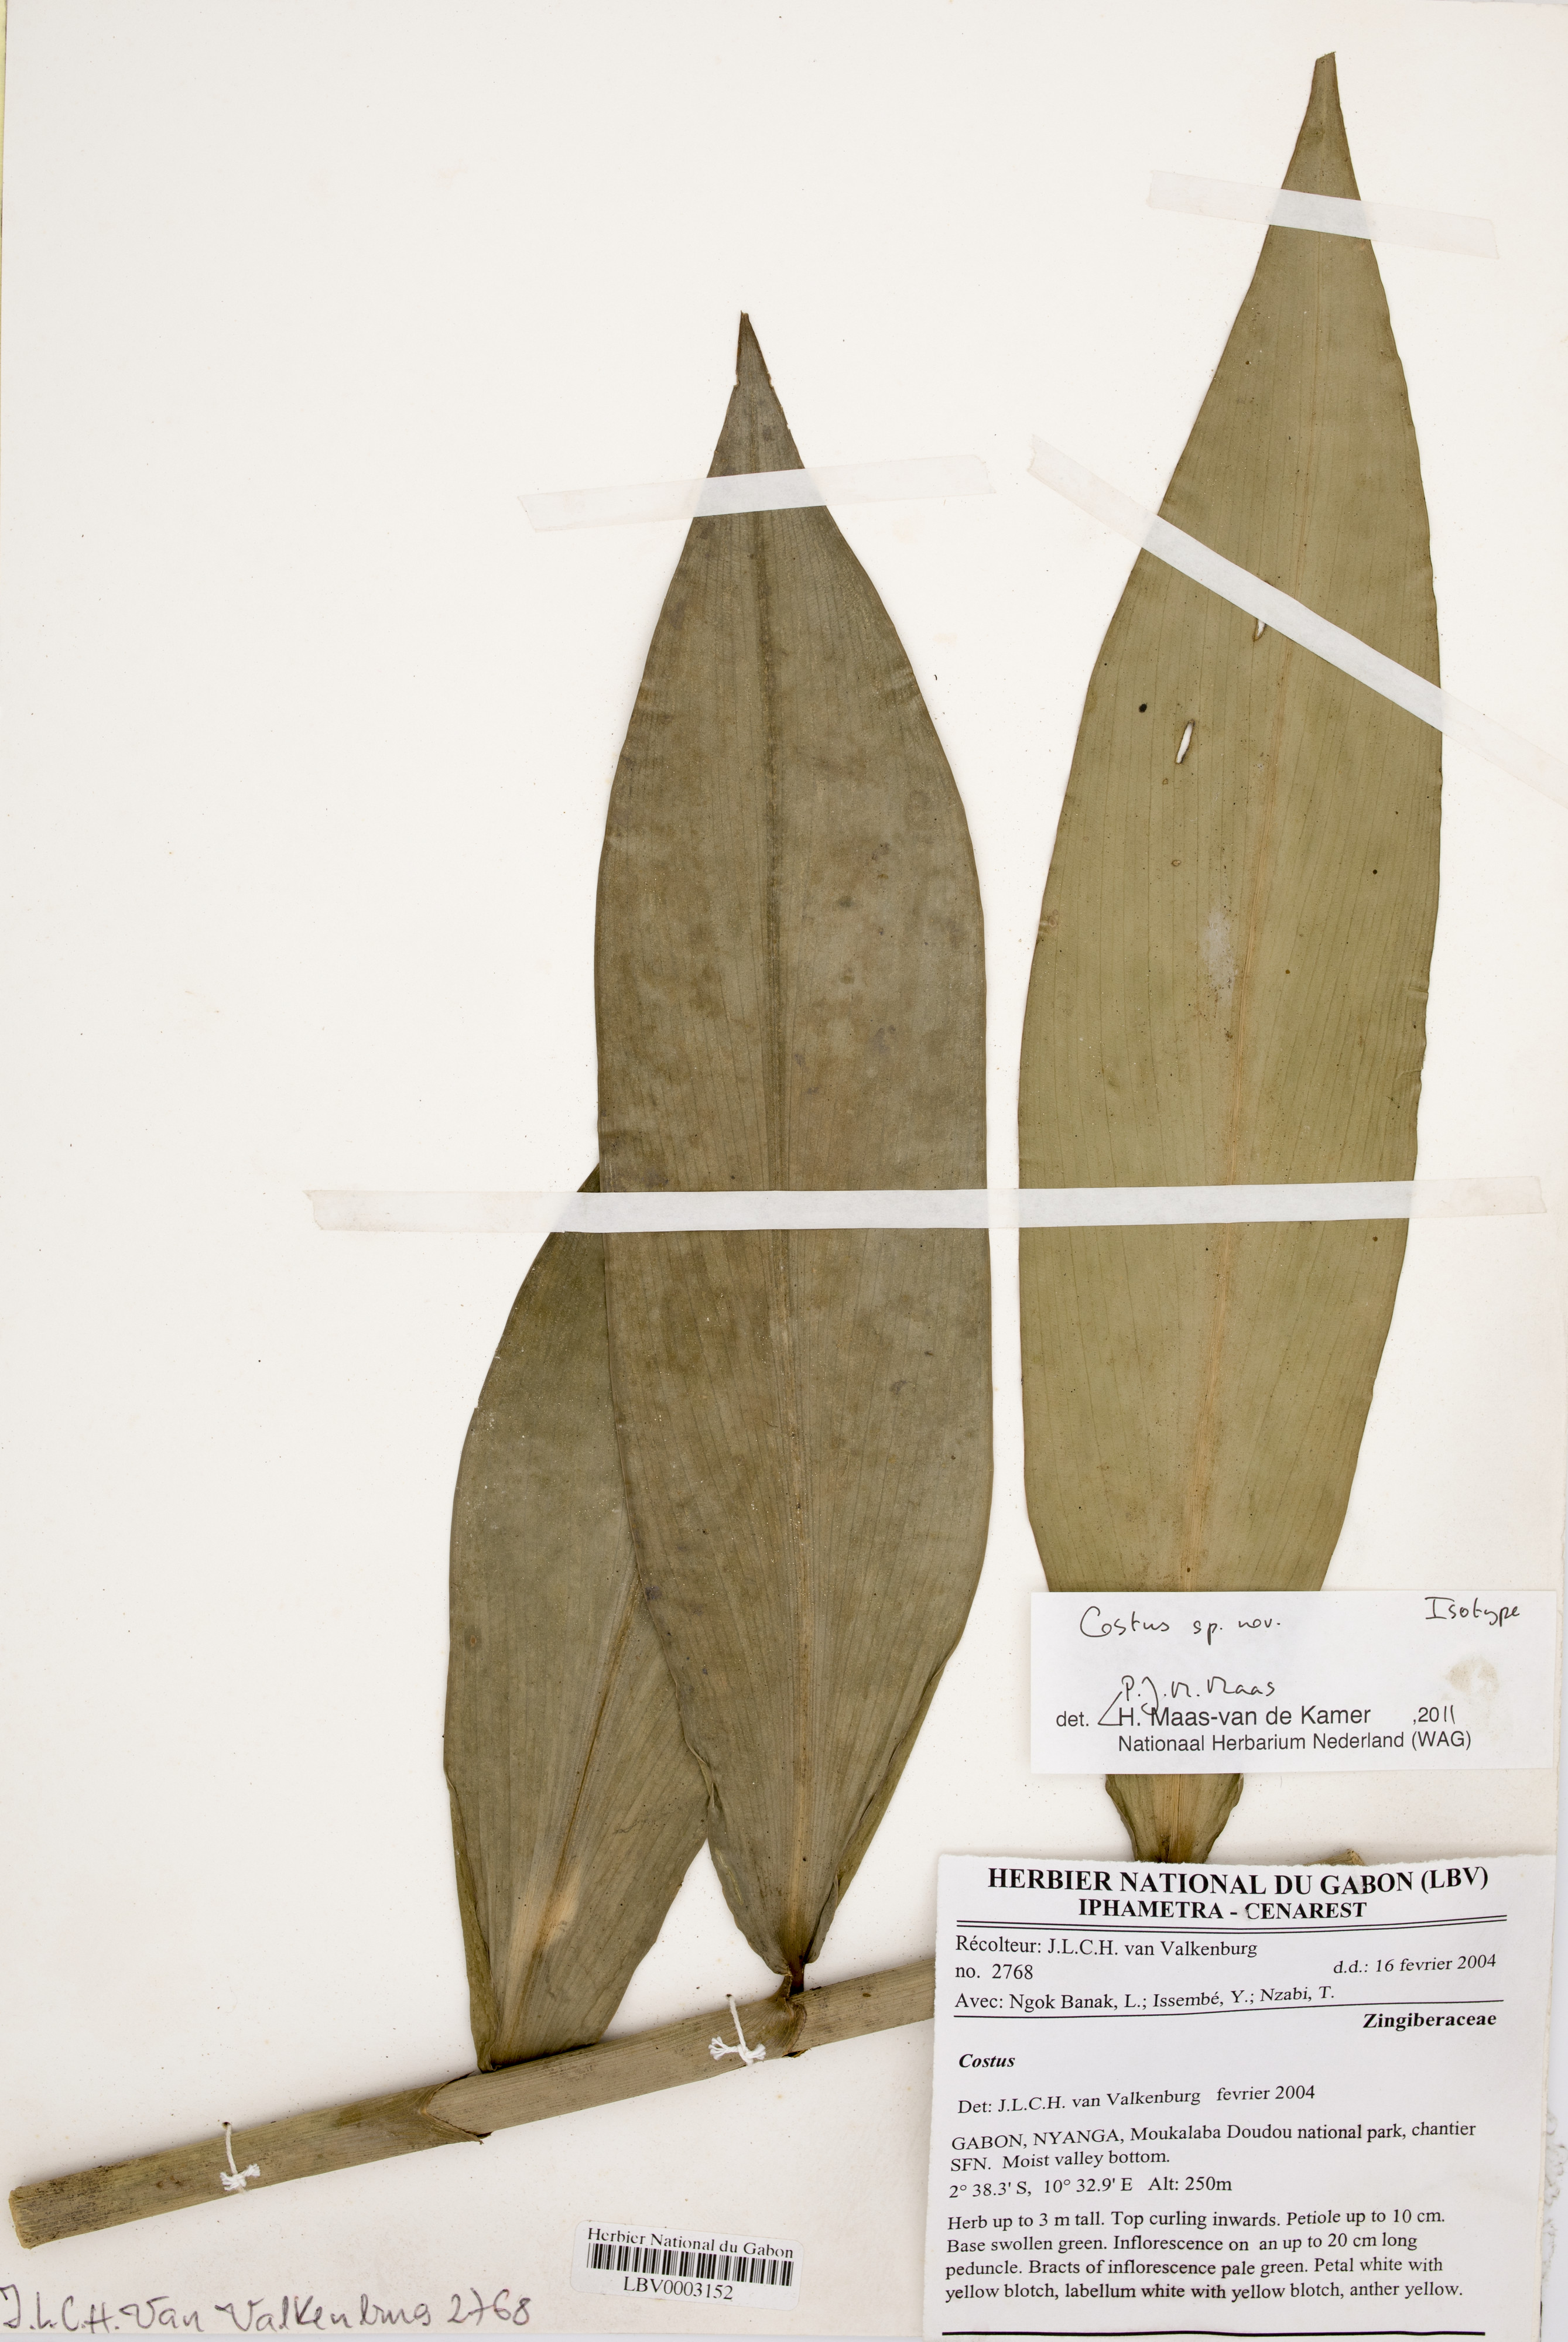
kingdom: Plantae
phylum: Tracheophyta
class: Liliopsida
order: Zingiberales
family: Costaceae
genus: Costus
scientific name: Costus acutissimus
